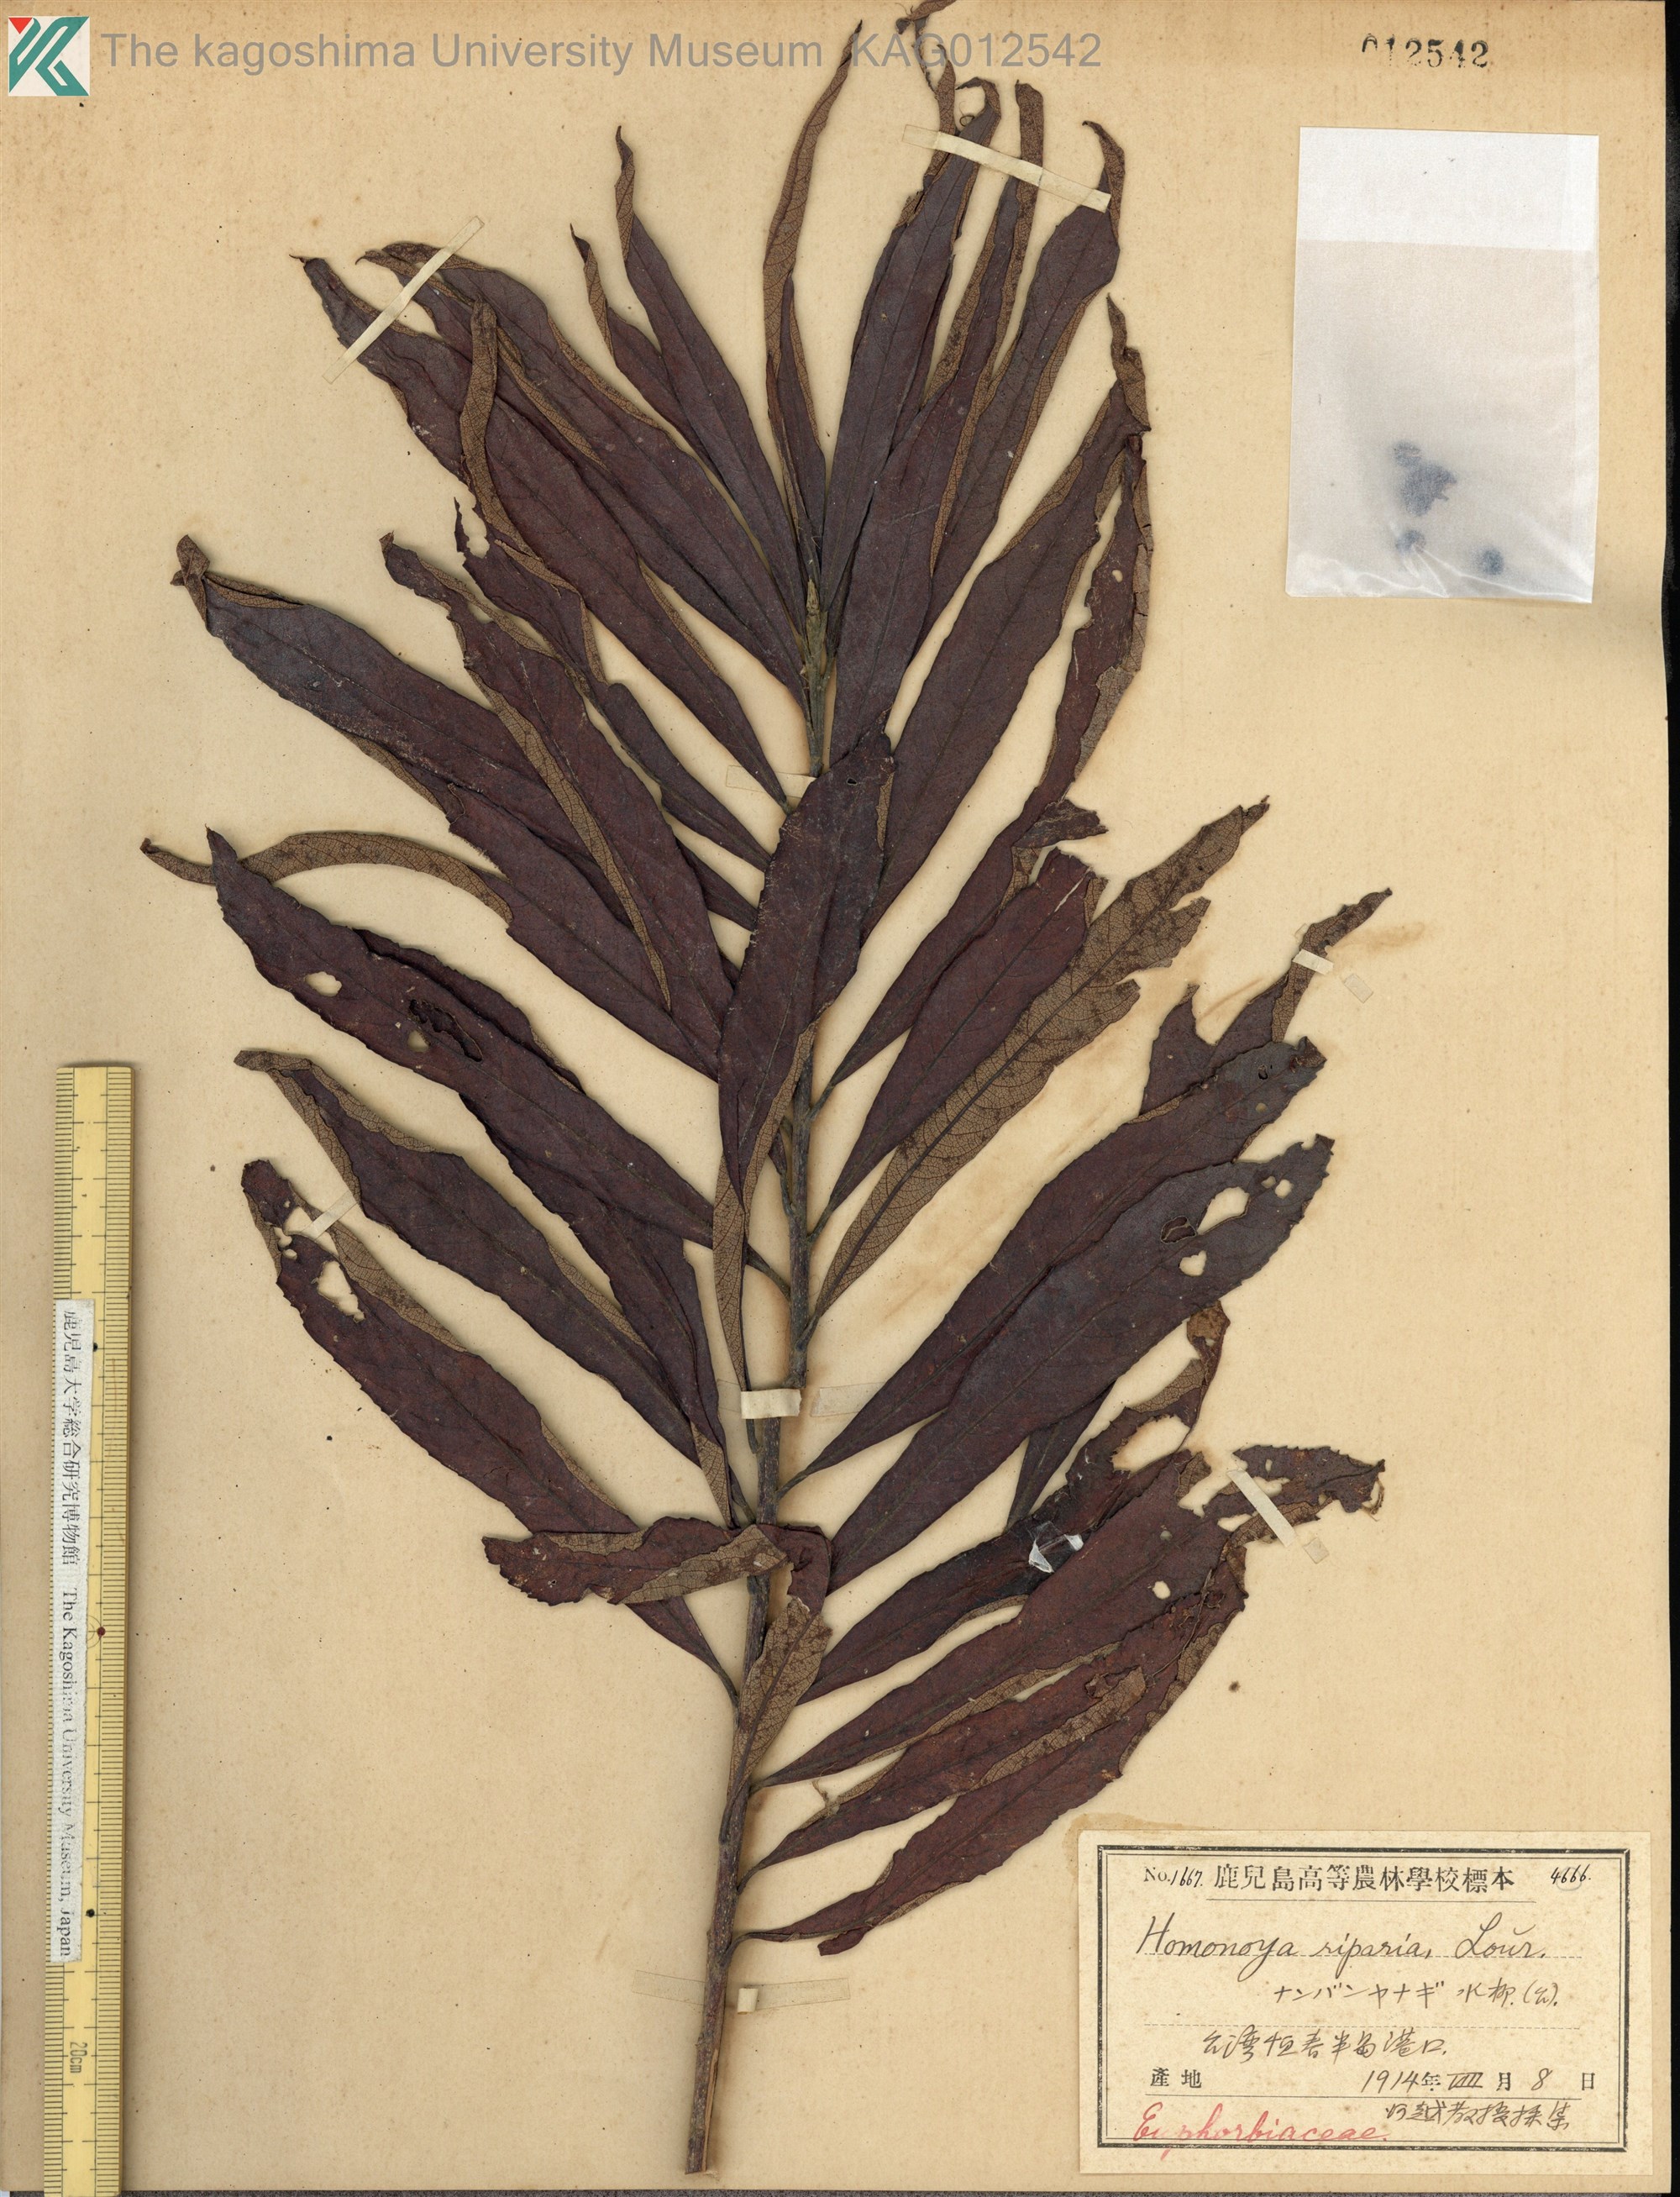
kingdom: Plantae
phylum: Tracheophyta
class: Magnoliopsida
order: Malpighiales
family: Euphorbiaceae
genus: Homonoia
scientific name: Homonoia riparia
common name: Willow-leaved water croton
